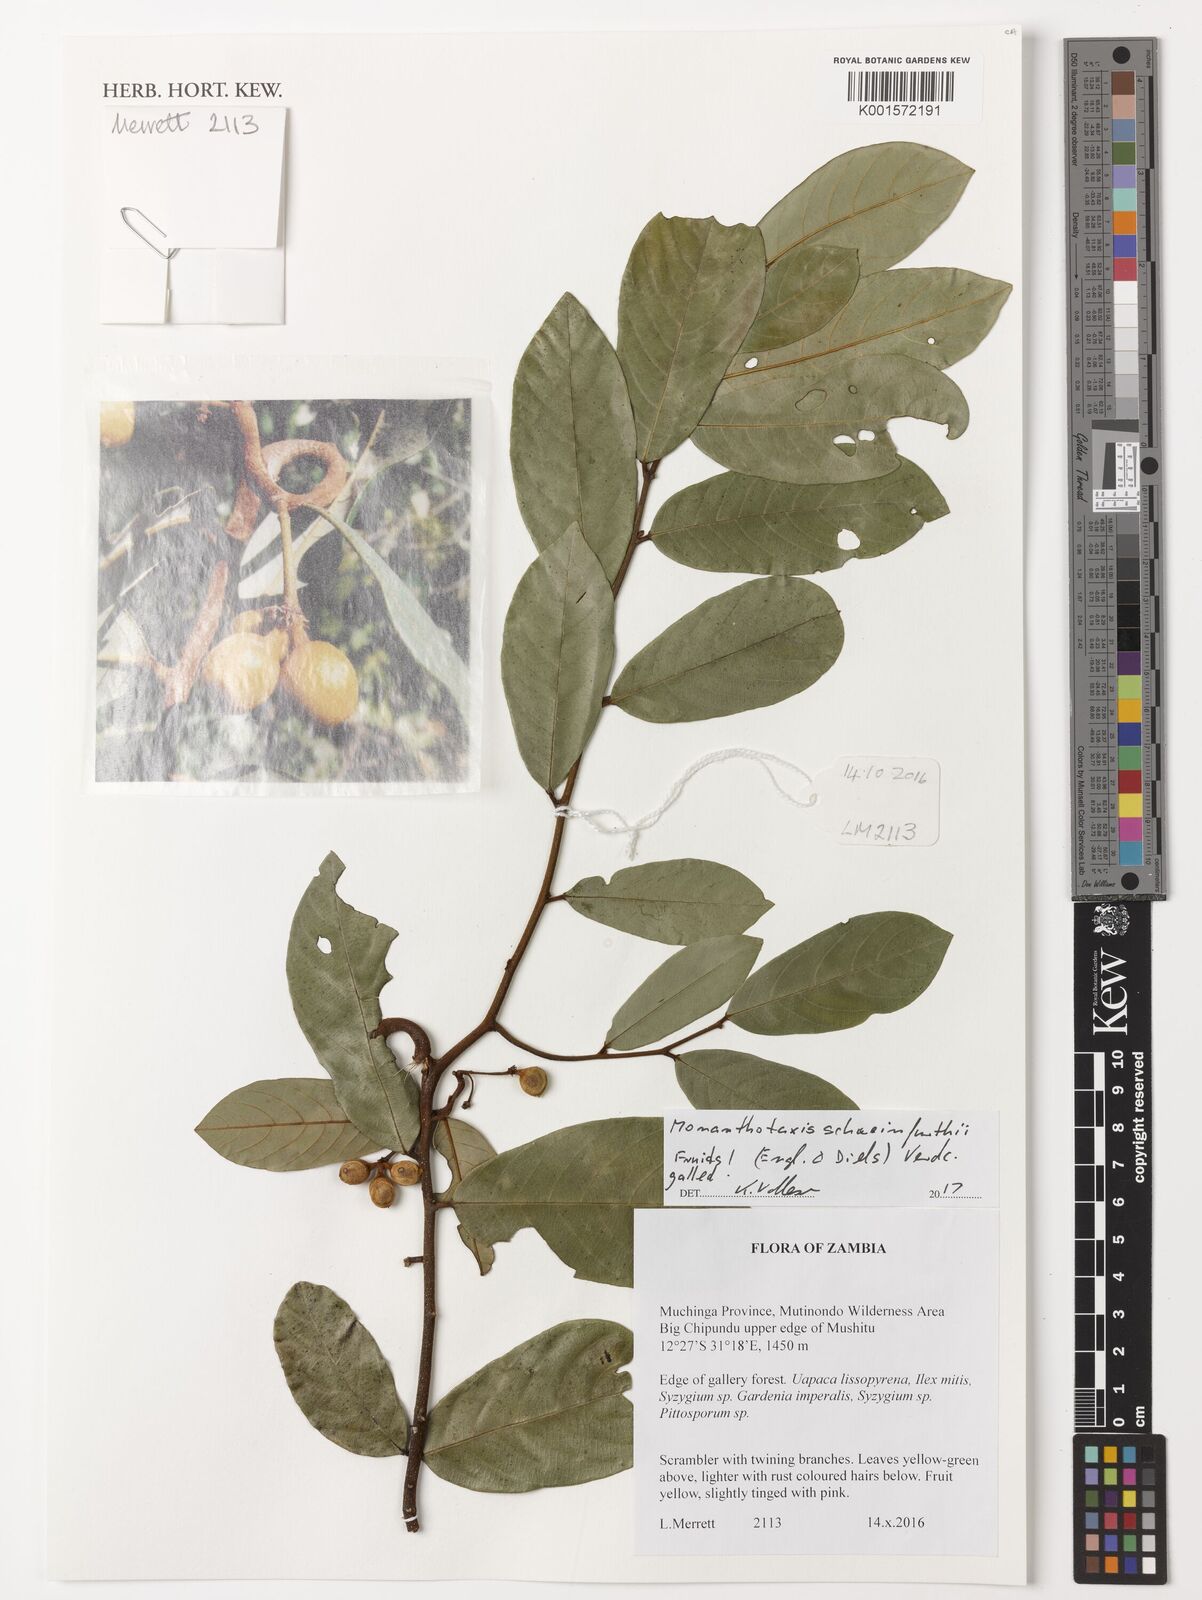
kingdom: Plantae
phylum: Tracheophyta
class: Magnoliopsida
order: Magnoliales
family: Annonaceae
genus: Monanthotaxis
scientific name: Monanthotaxis schweinfurthii
